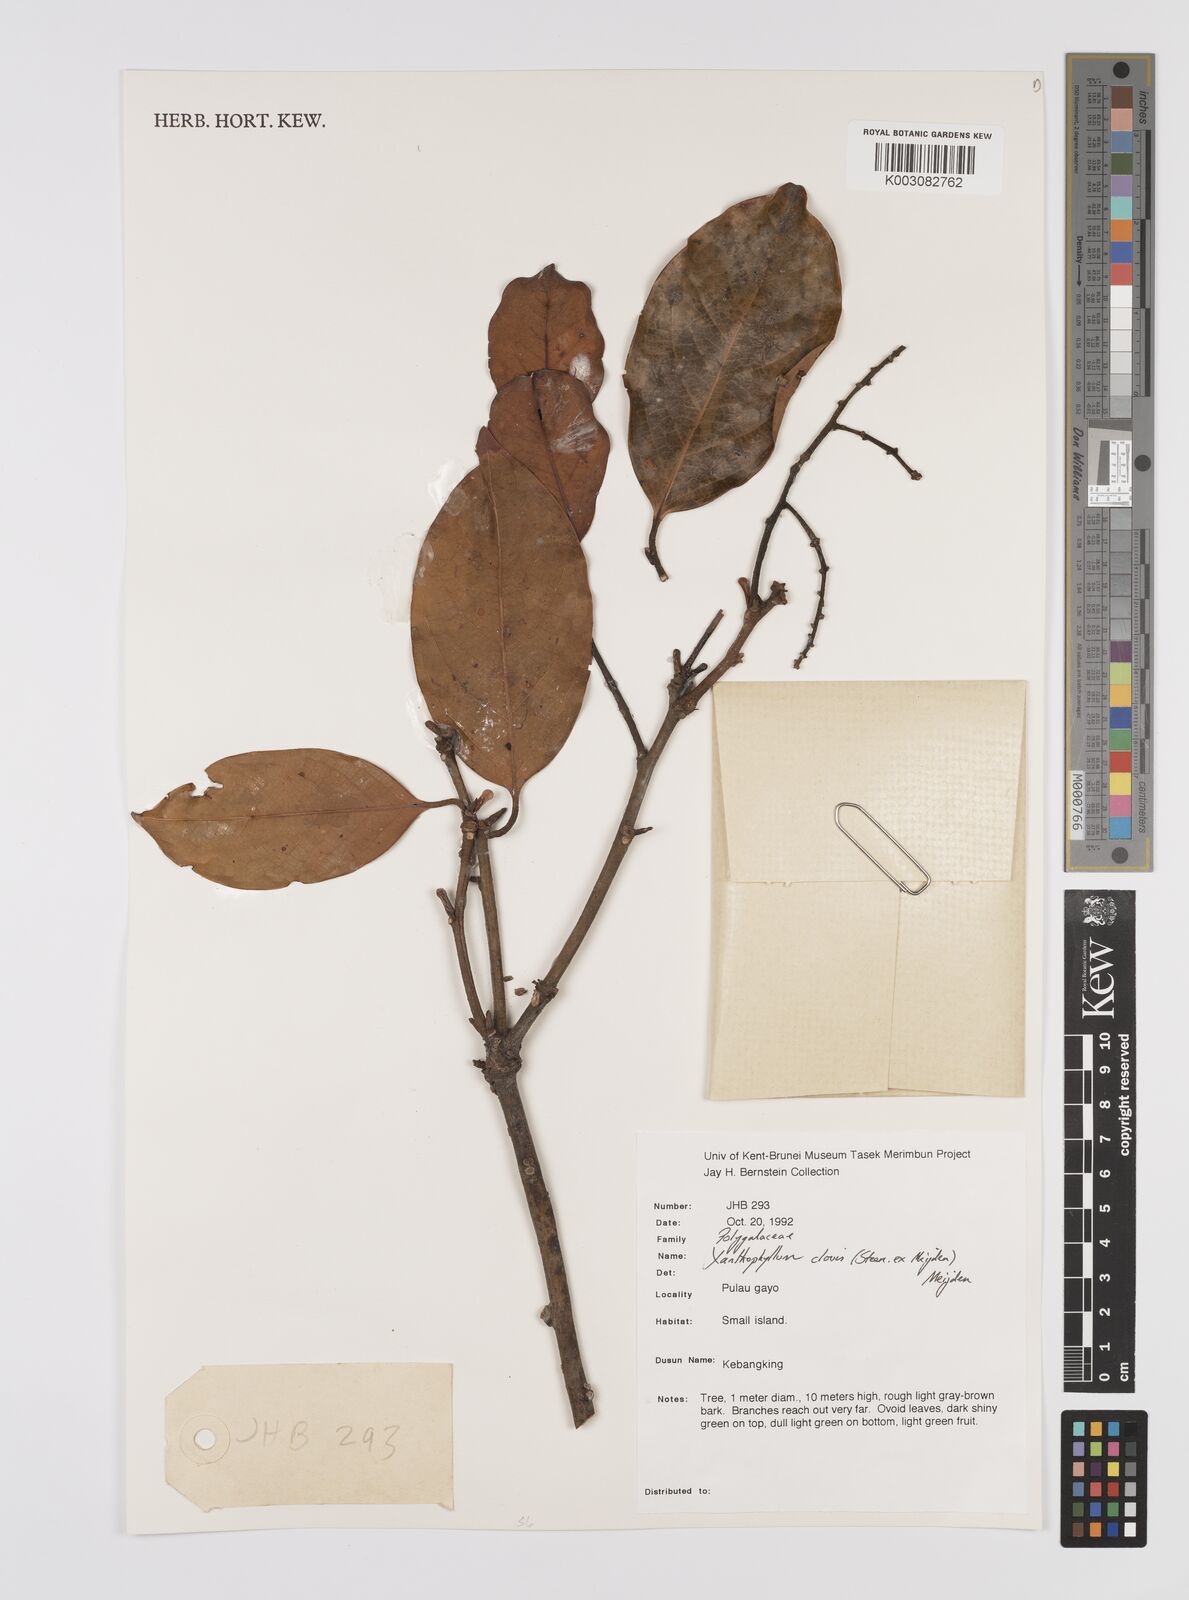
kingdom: Plantae
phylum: Tracheophyta
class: Magnoliopsida
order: Fabales
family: Polygalaceae
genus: Xanthophyllum
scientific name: Xanthophyllum clovis
